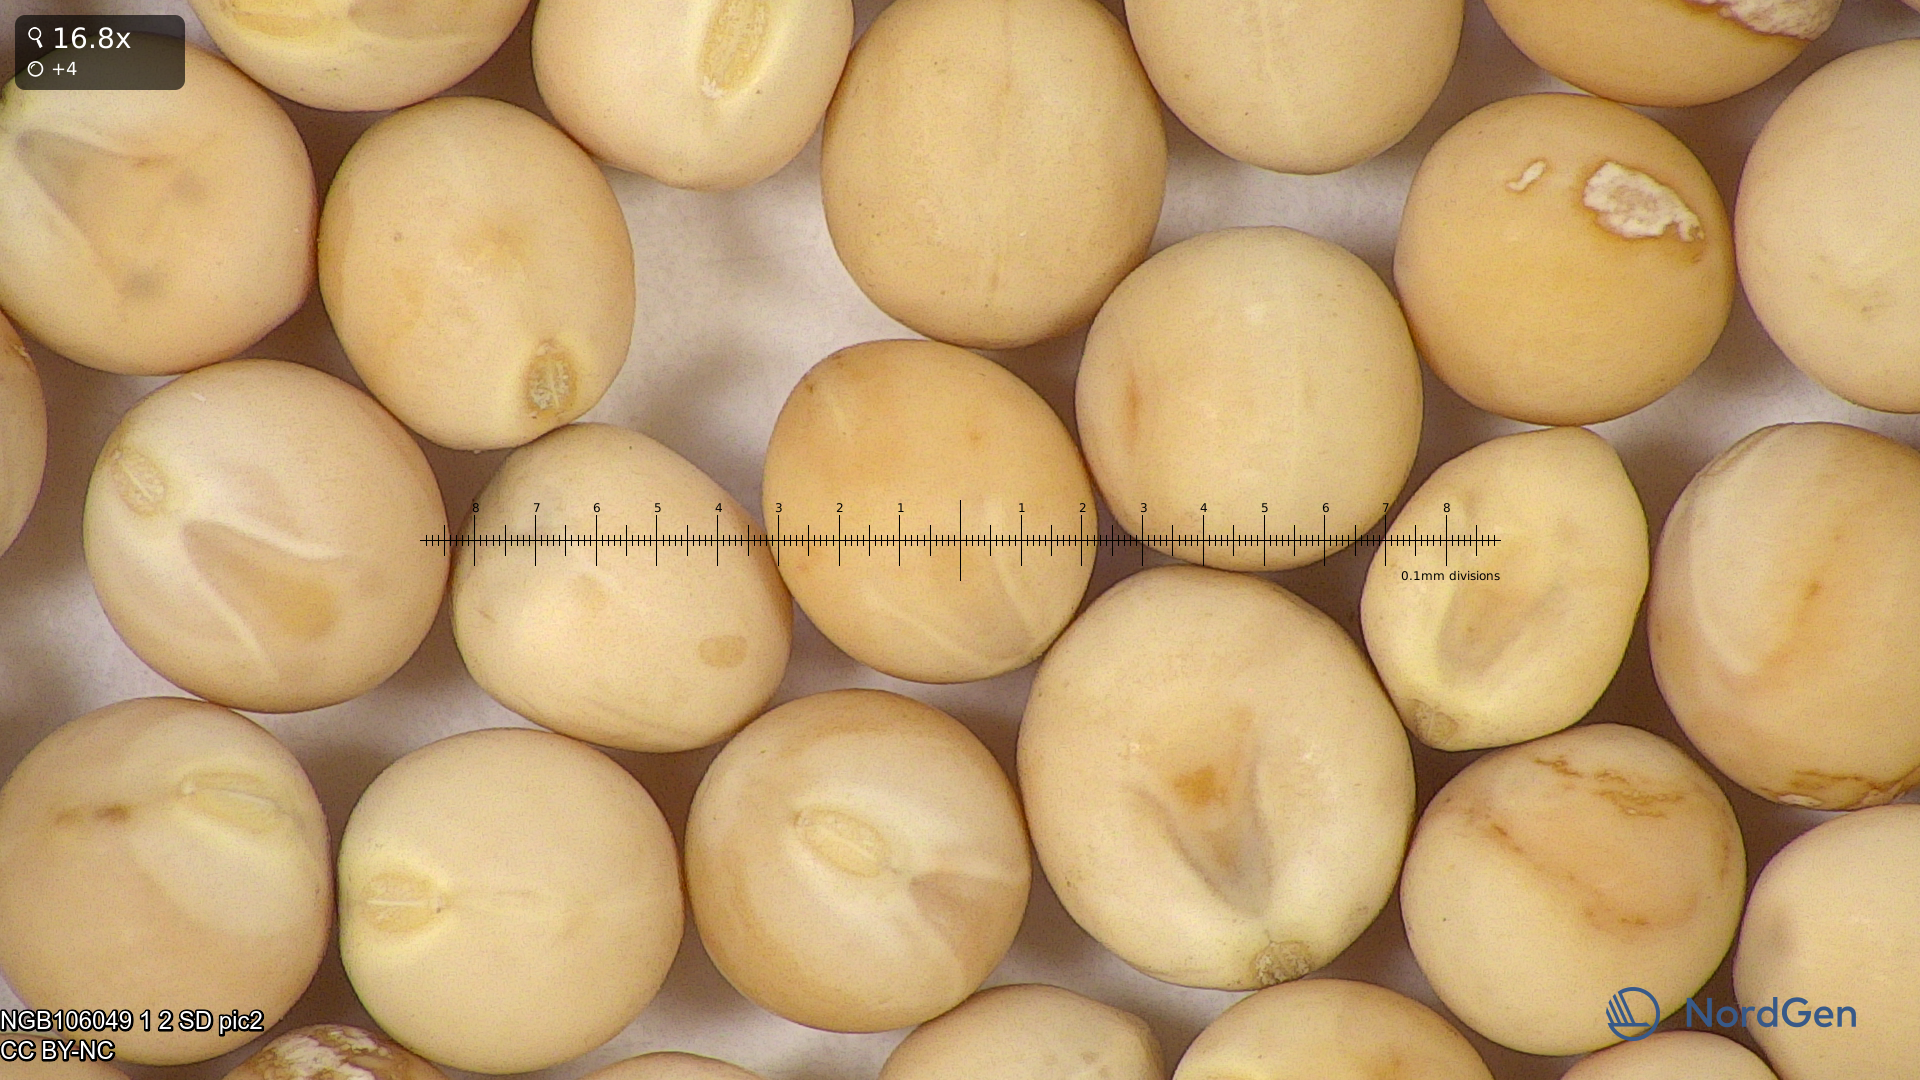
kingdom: Plantae
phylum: Tracheophyta
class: Magnoliopsida
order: Fabales
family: Fabaceae
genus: Lathyrus
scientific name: Lathyrus oleraceus
